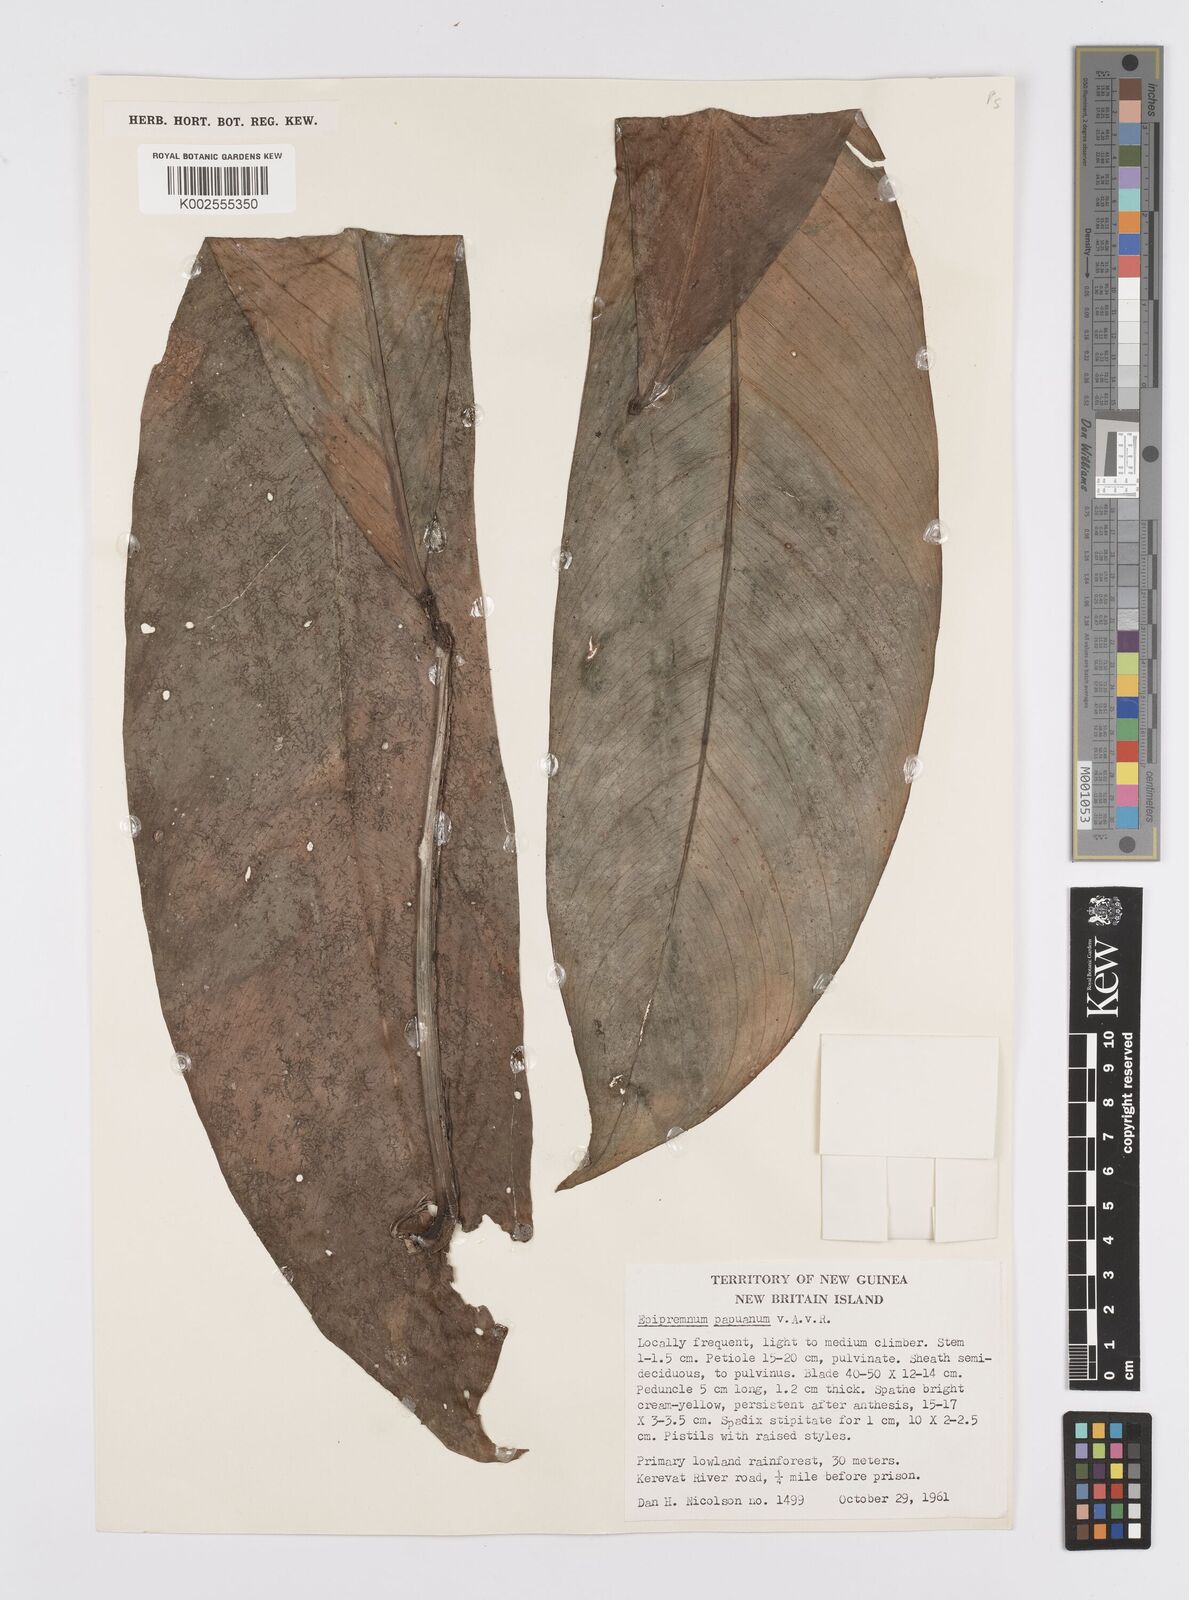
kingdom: Plantae
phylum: Tracheophyta
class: Liliopsida
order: Alismatales
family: Araceae
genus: Epipremnum
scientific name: Epipremnum papuanum
